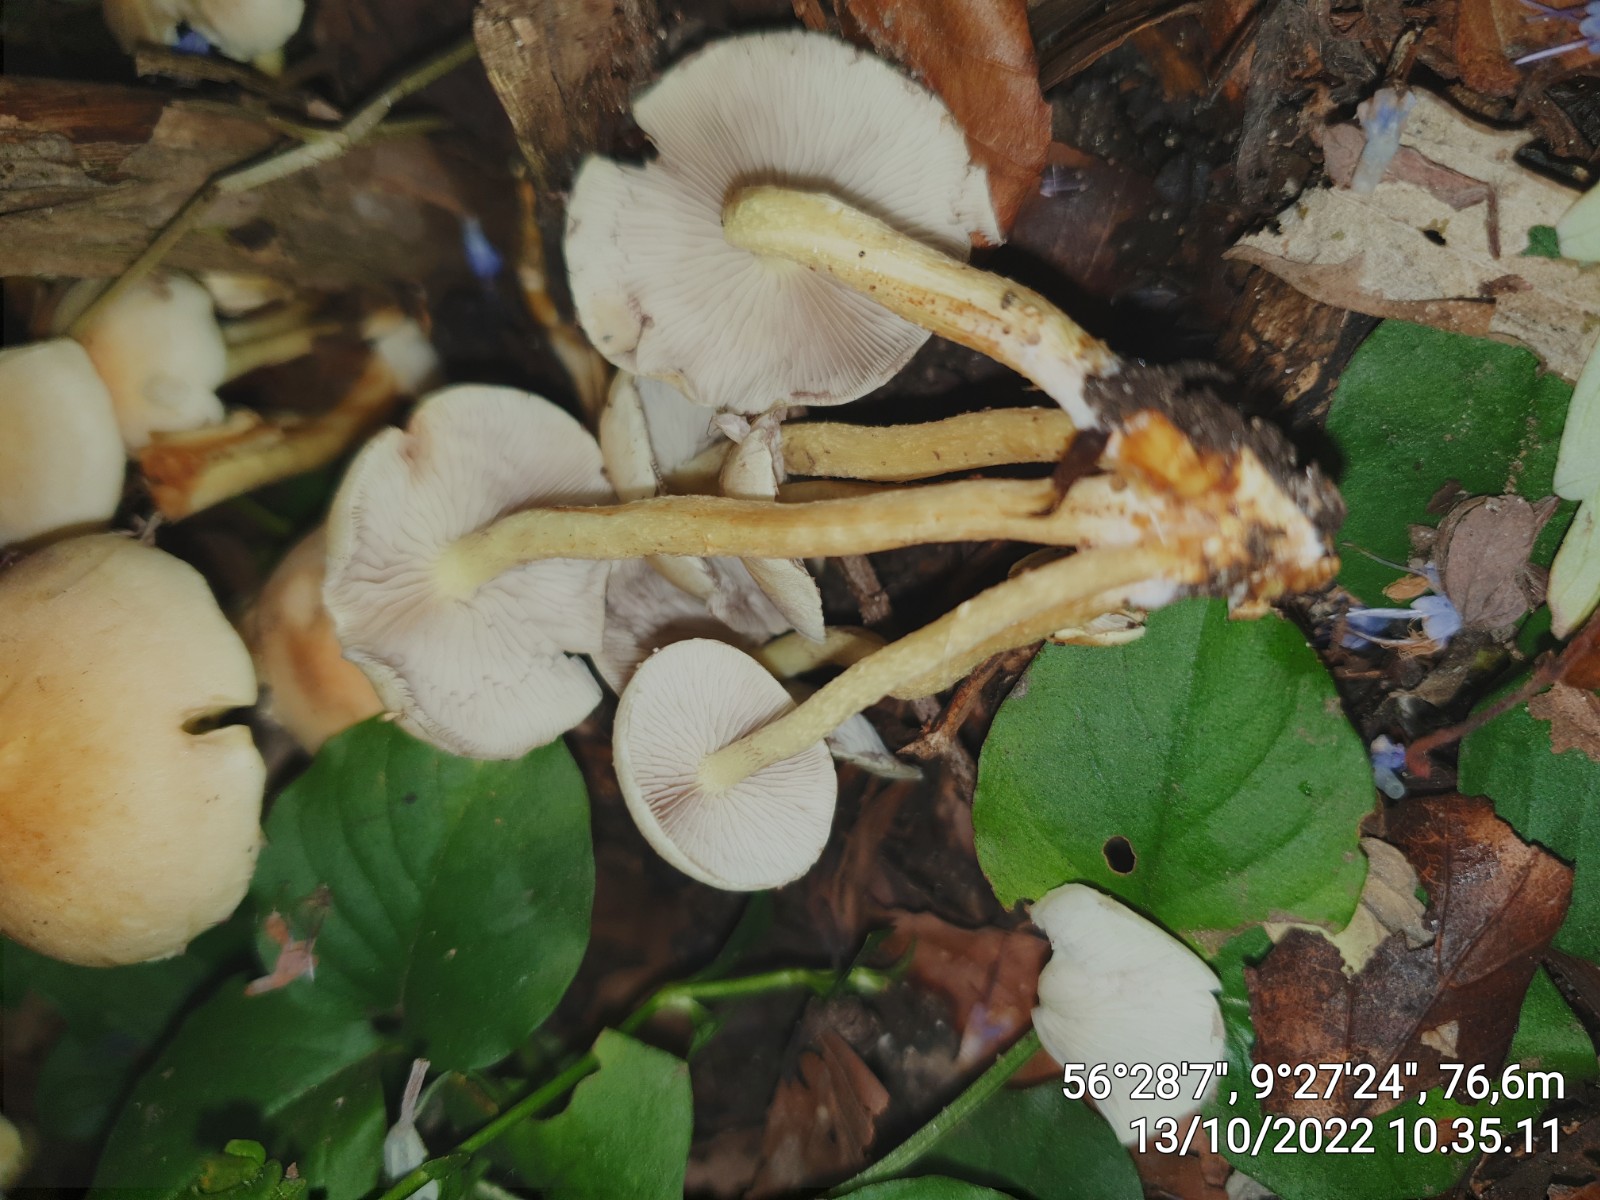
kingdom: Fungi
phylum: Basidiomycota
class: Agaricomycetes
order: Agaricales
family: Strophariaceae
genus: Hypholoma
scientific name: Hypholoma fasciculare
